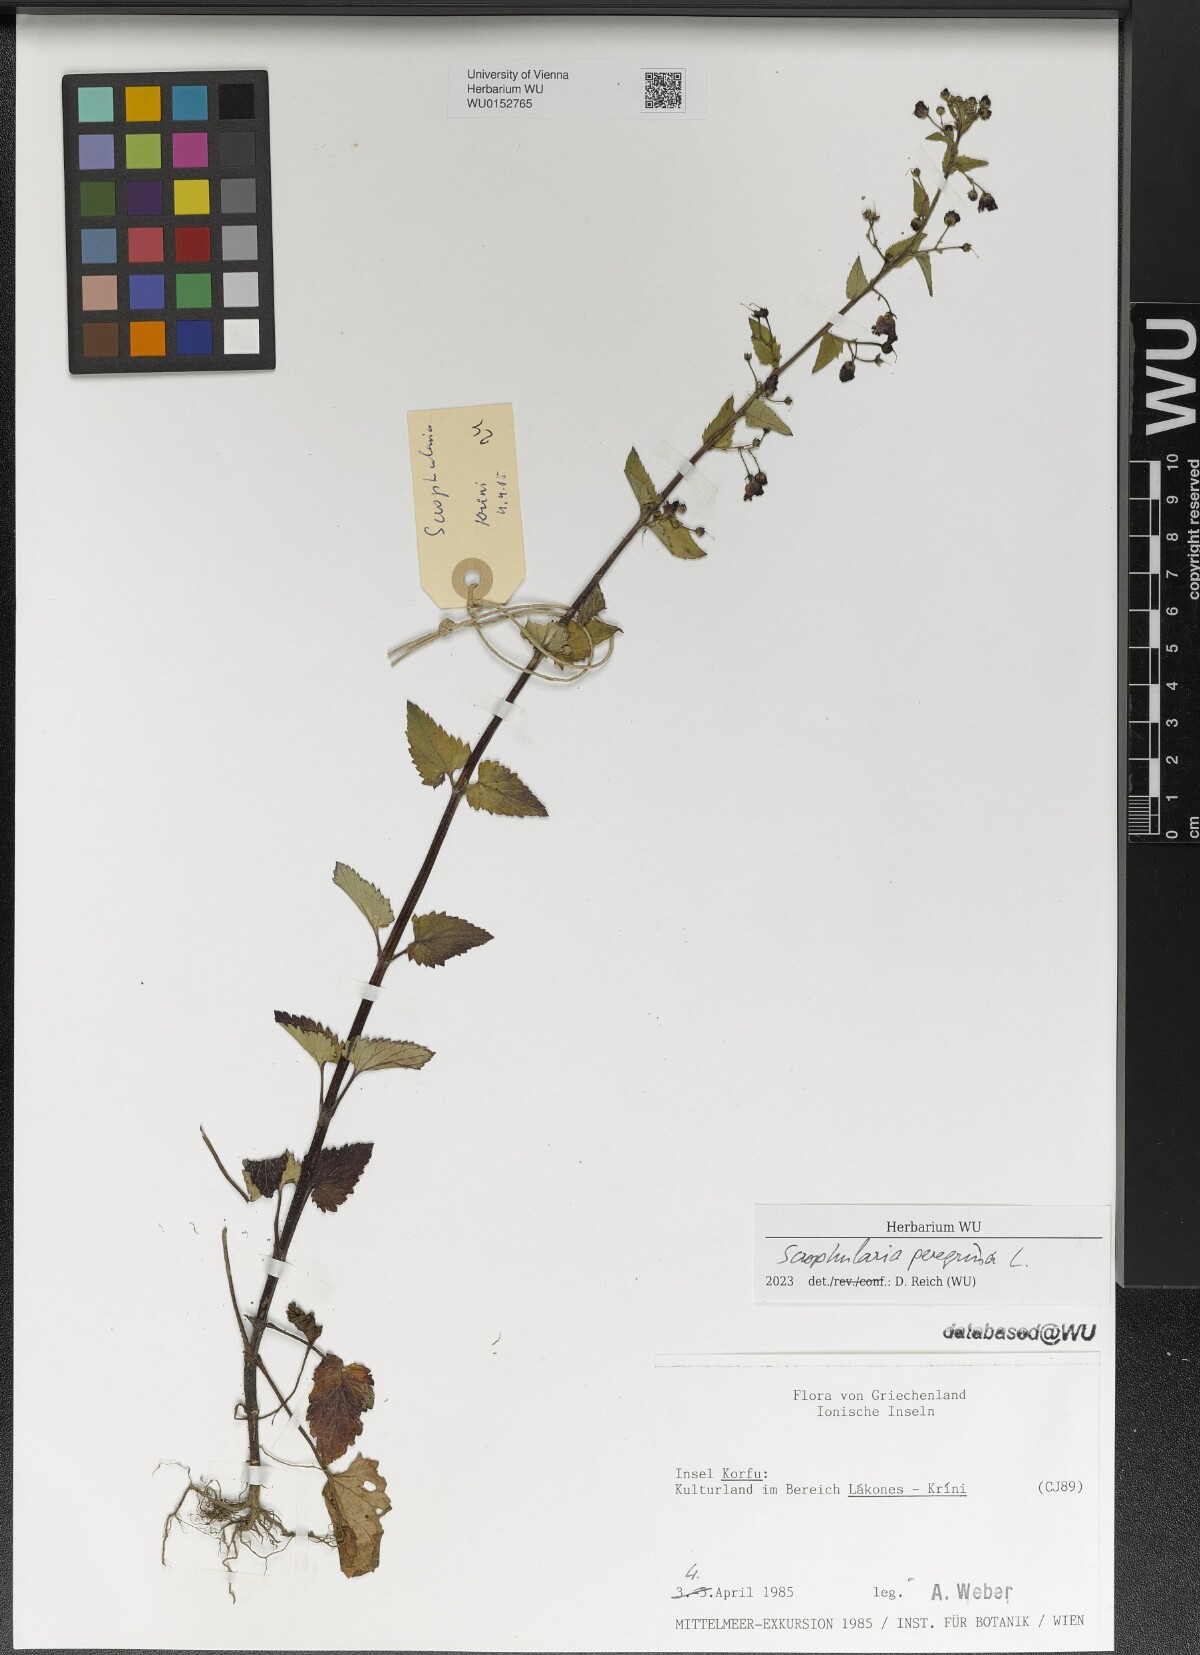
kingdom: Plantae
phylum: Tracheophyta
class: Magnoliopsida
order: Lamiales
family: Scrophulariaceae
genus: Scrophularia
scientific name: Scrophularia peregrina
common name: Mediterranean figwort
